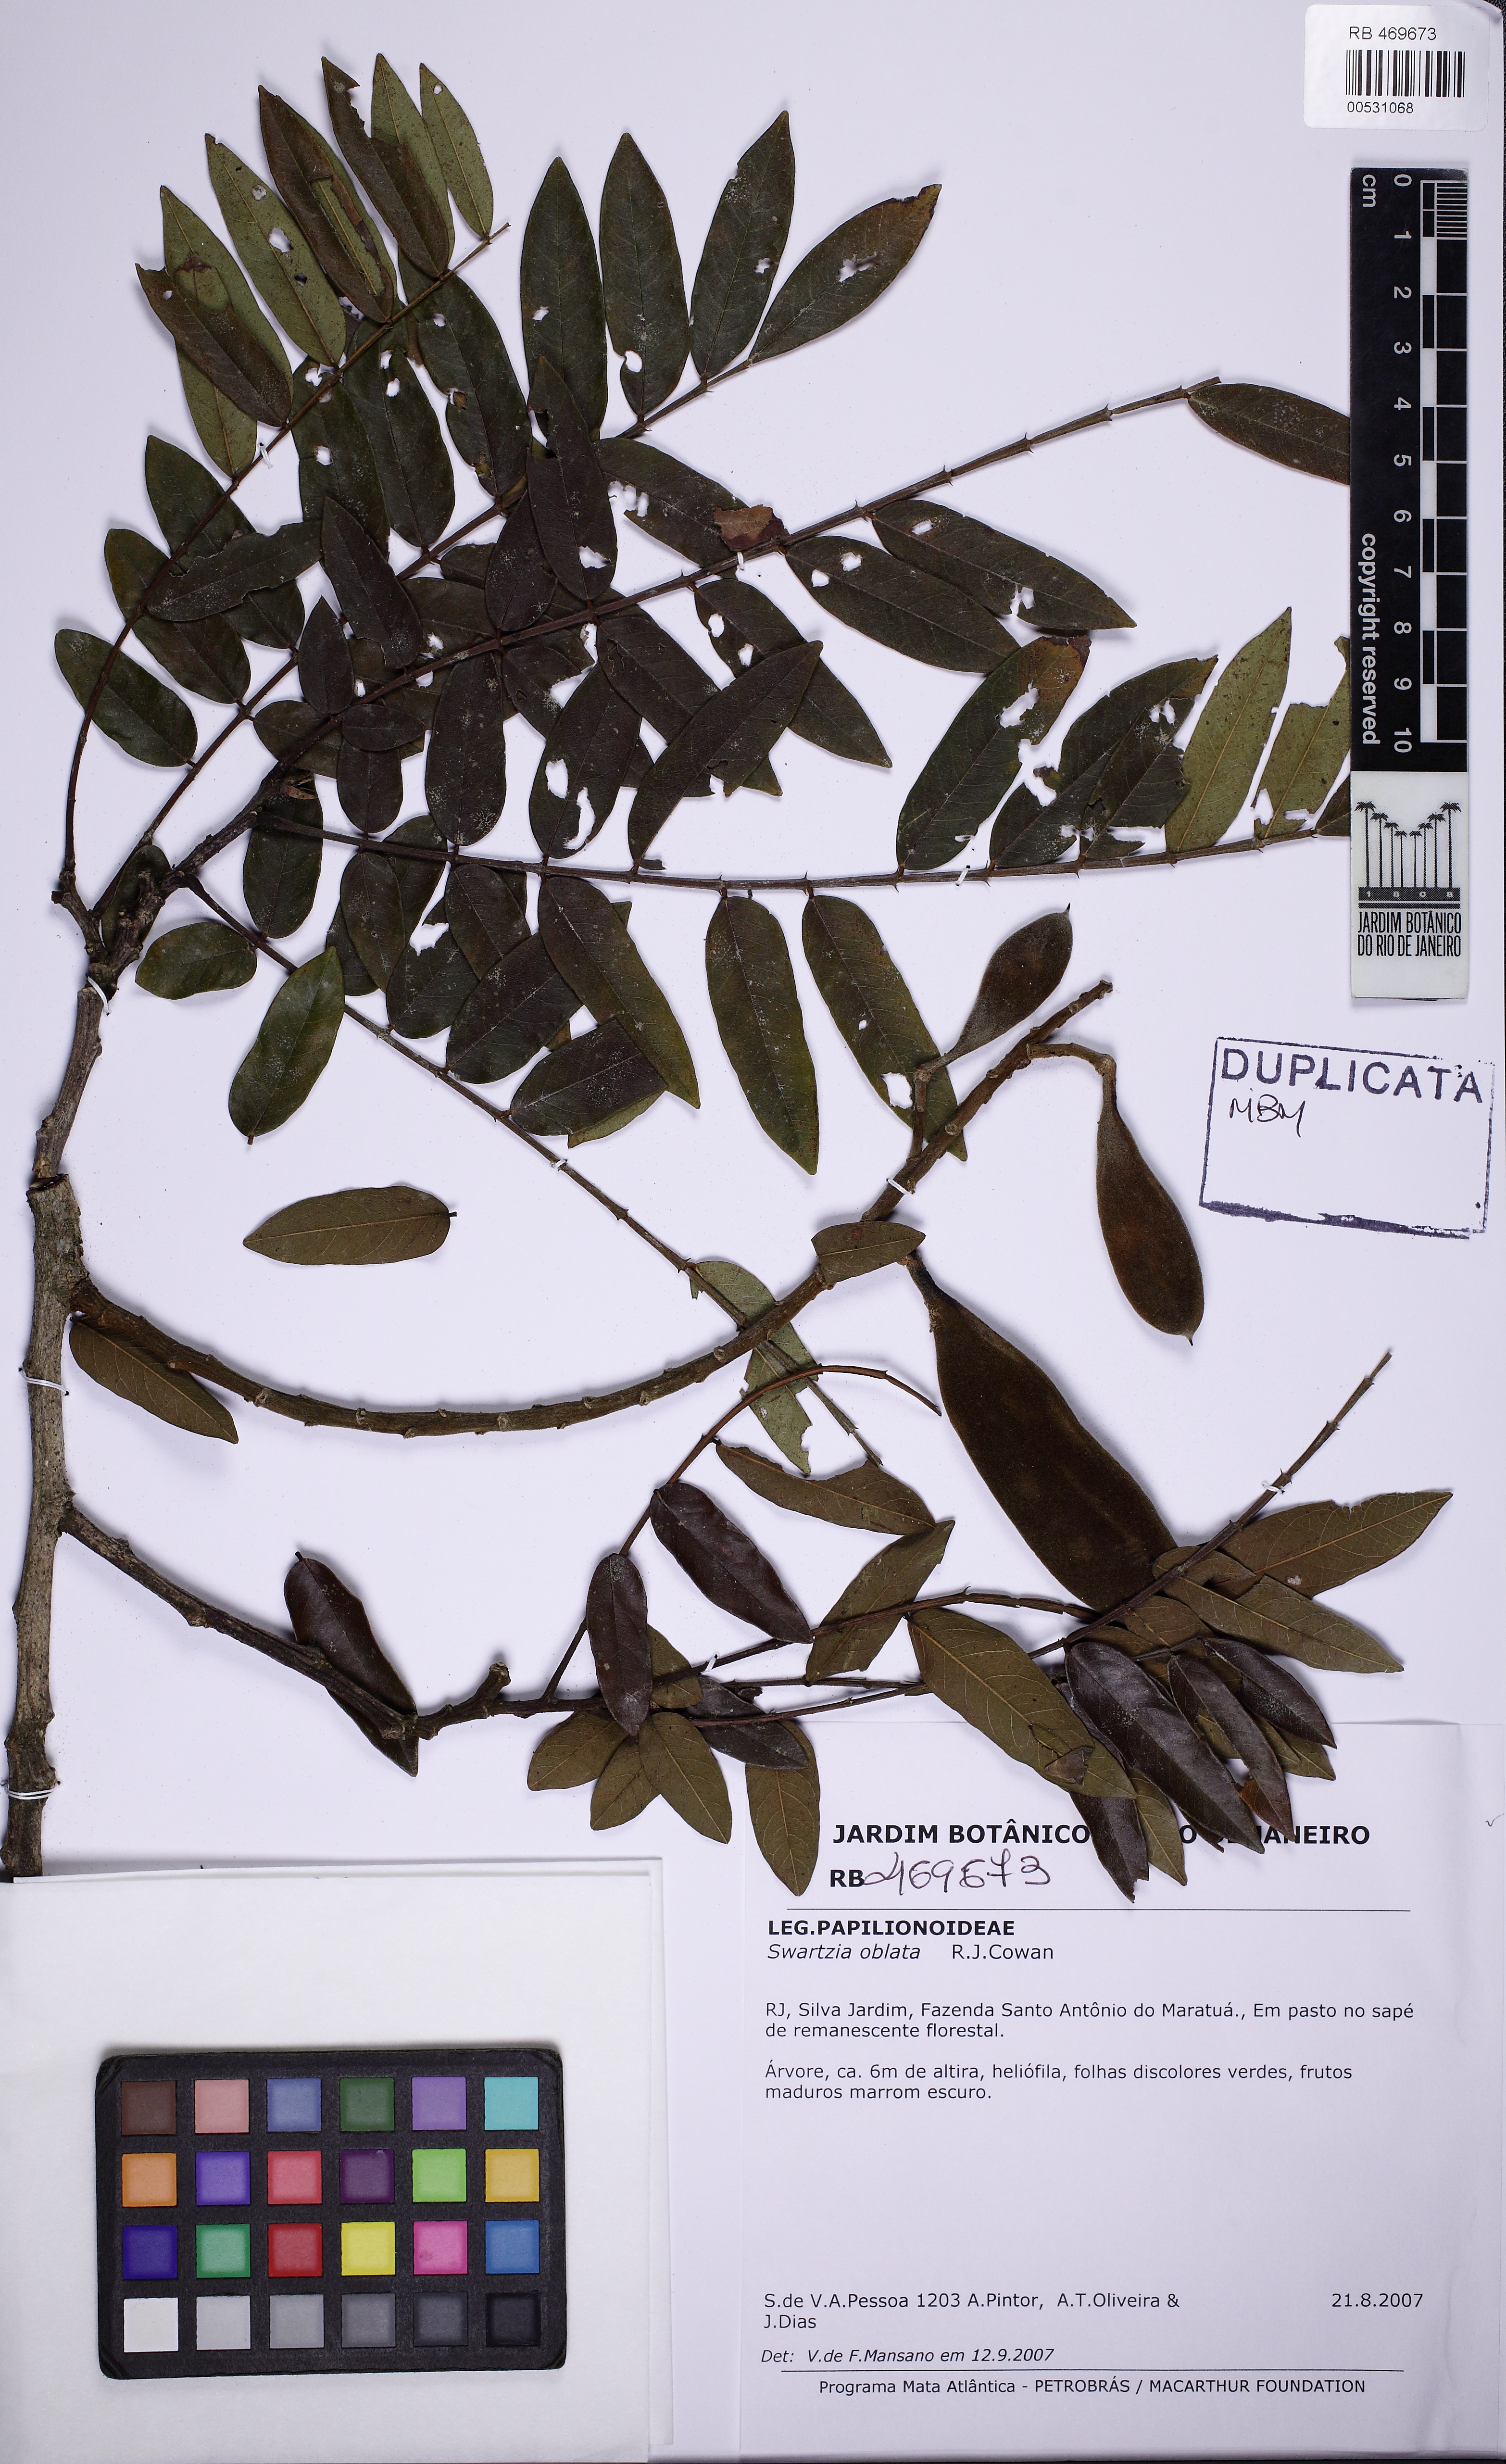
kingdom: Plantae
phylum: Tracheophyta
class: Magnoliopsida
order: Fabales
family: Fabaceae
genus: Swartzia
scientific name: Swartzia oblata
